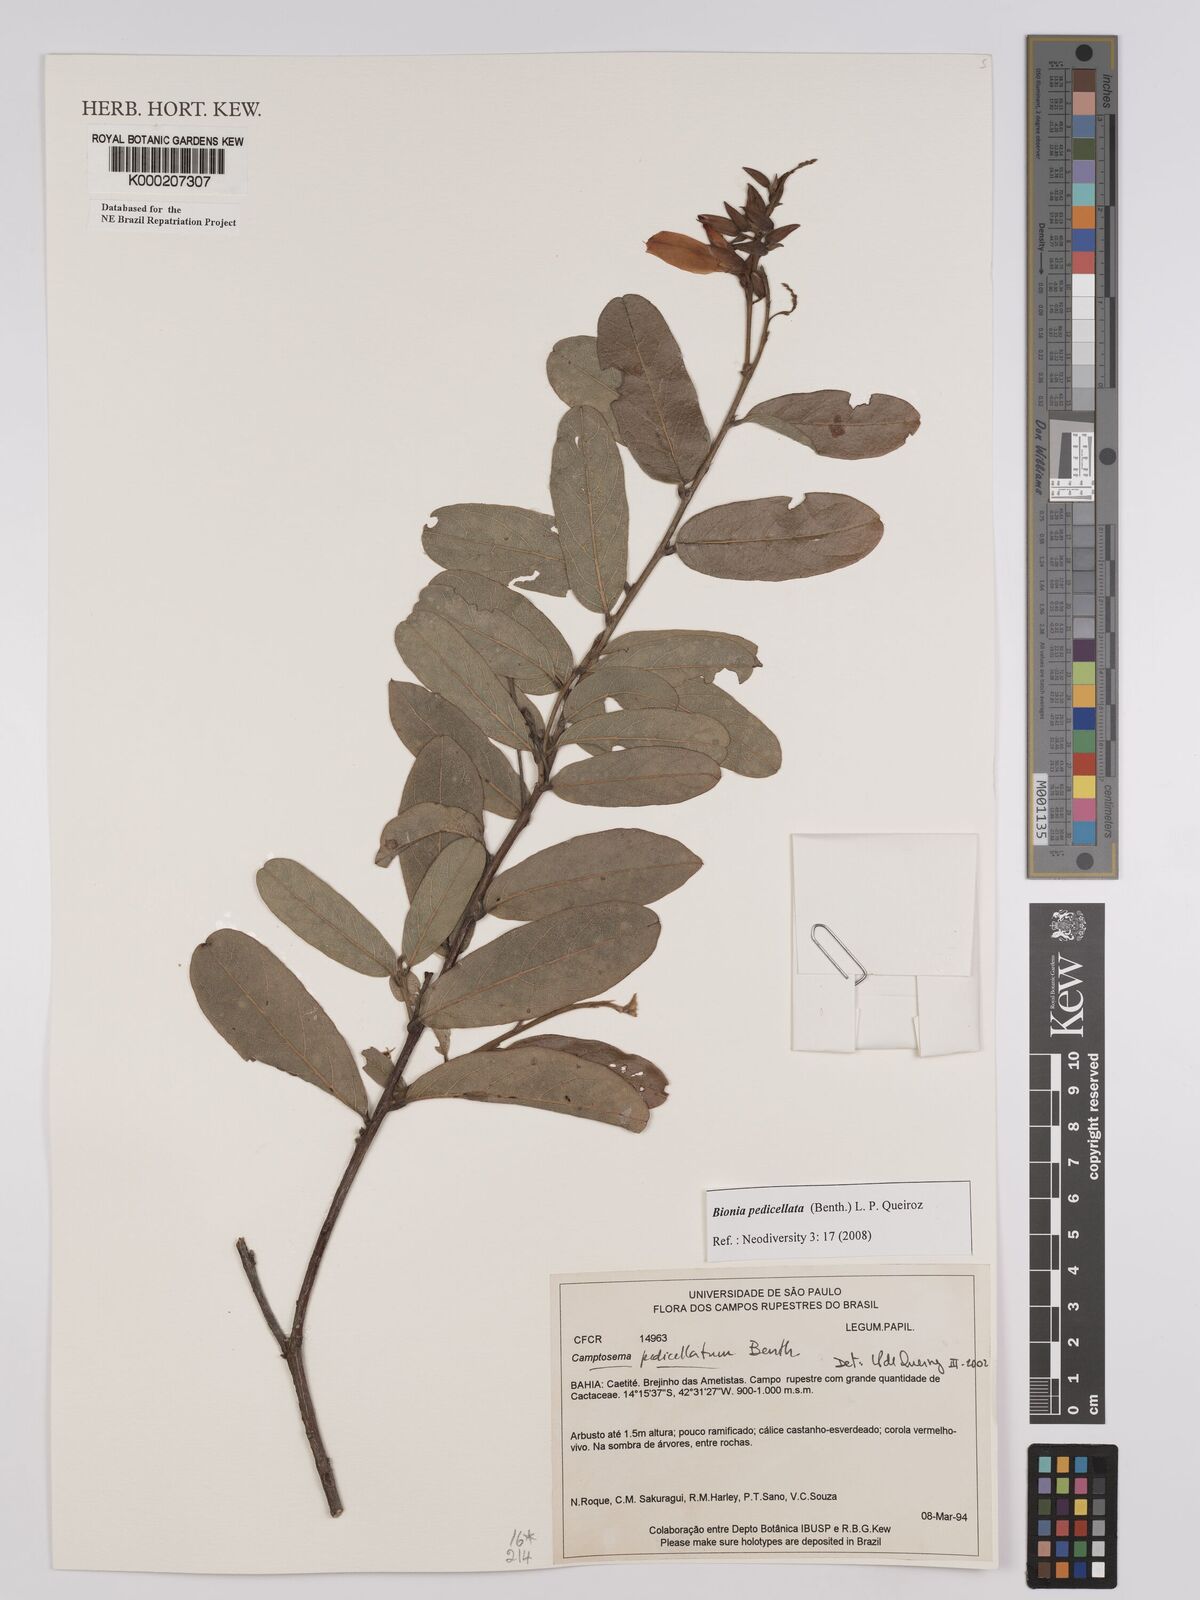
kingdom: Plantae
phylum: Tracheophyta
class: Magnoliopsida
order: Fabales
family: Fabaceae
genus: Camptosema
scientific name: Camptosema pedicellatum
